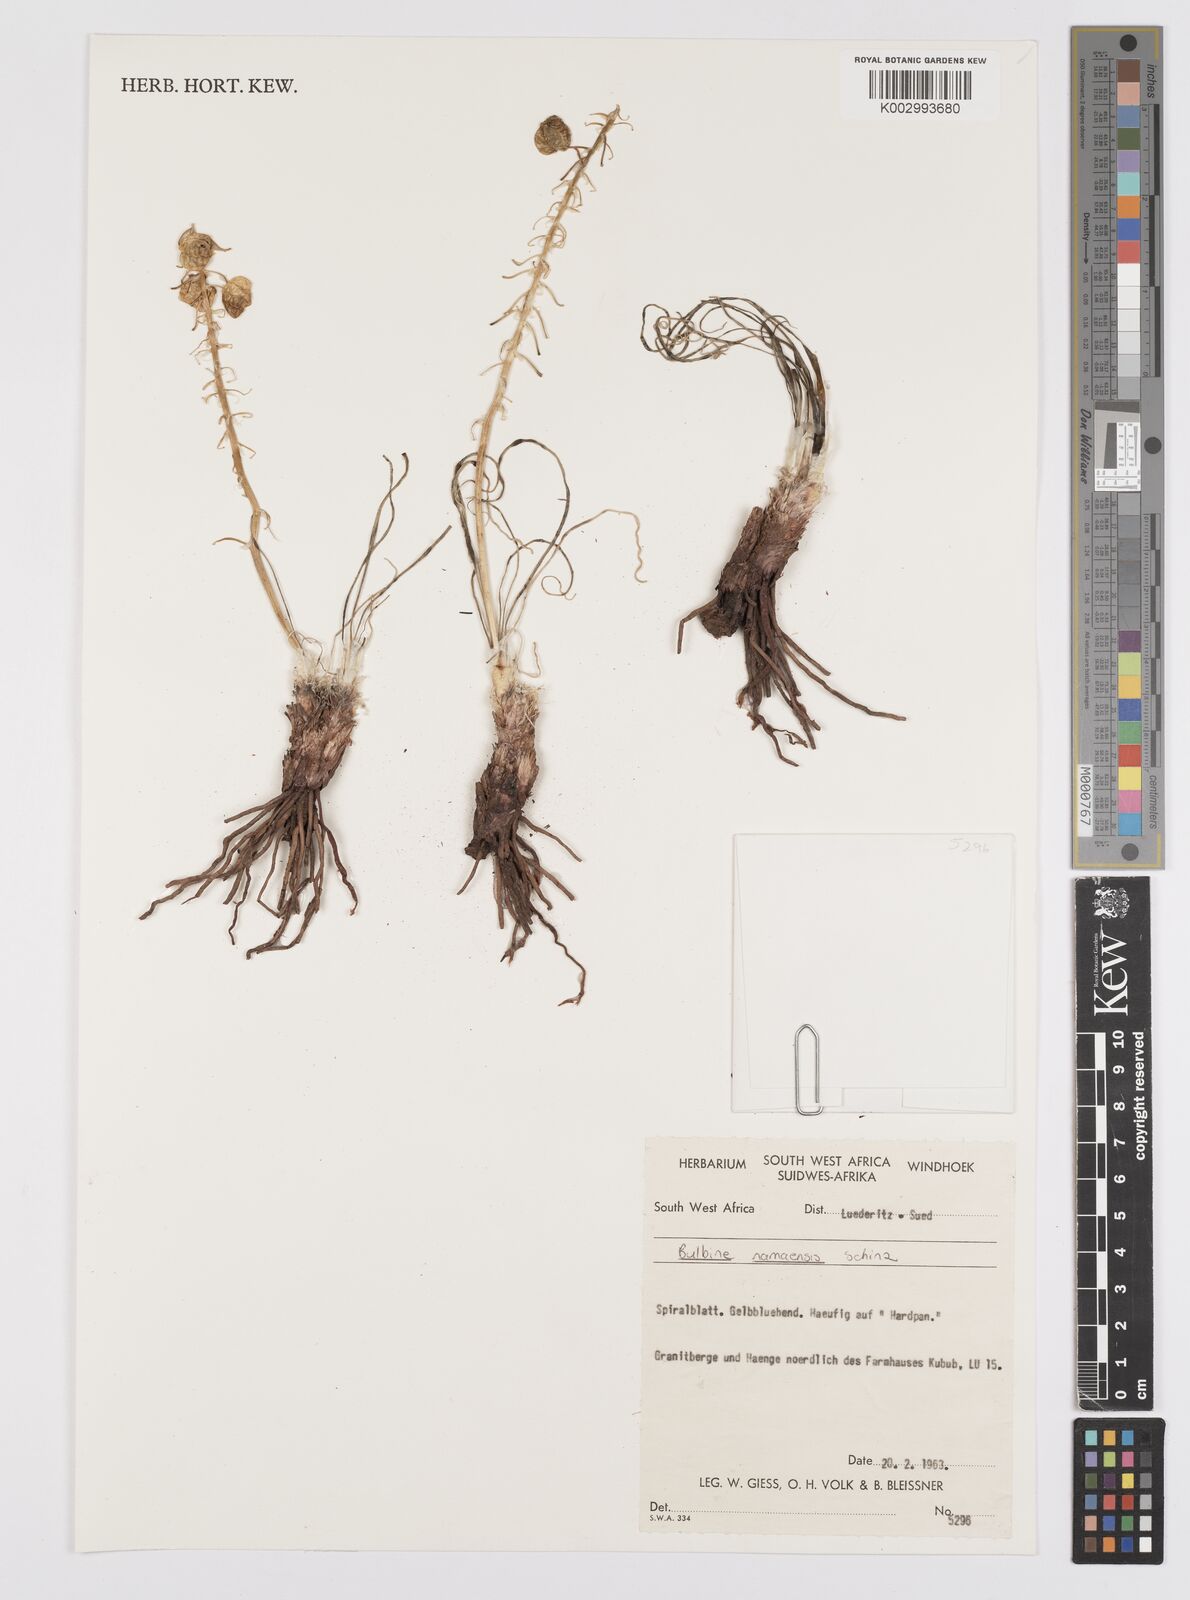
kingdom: Plantae
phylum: Tracheophyta
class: Liliopsida
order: Asparagales
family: Asphodelaceae
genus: Bulbine
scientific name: Bulbine capitata
